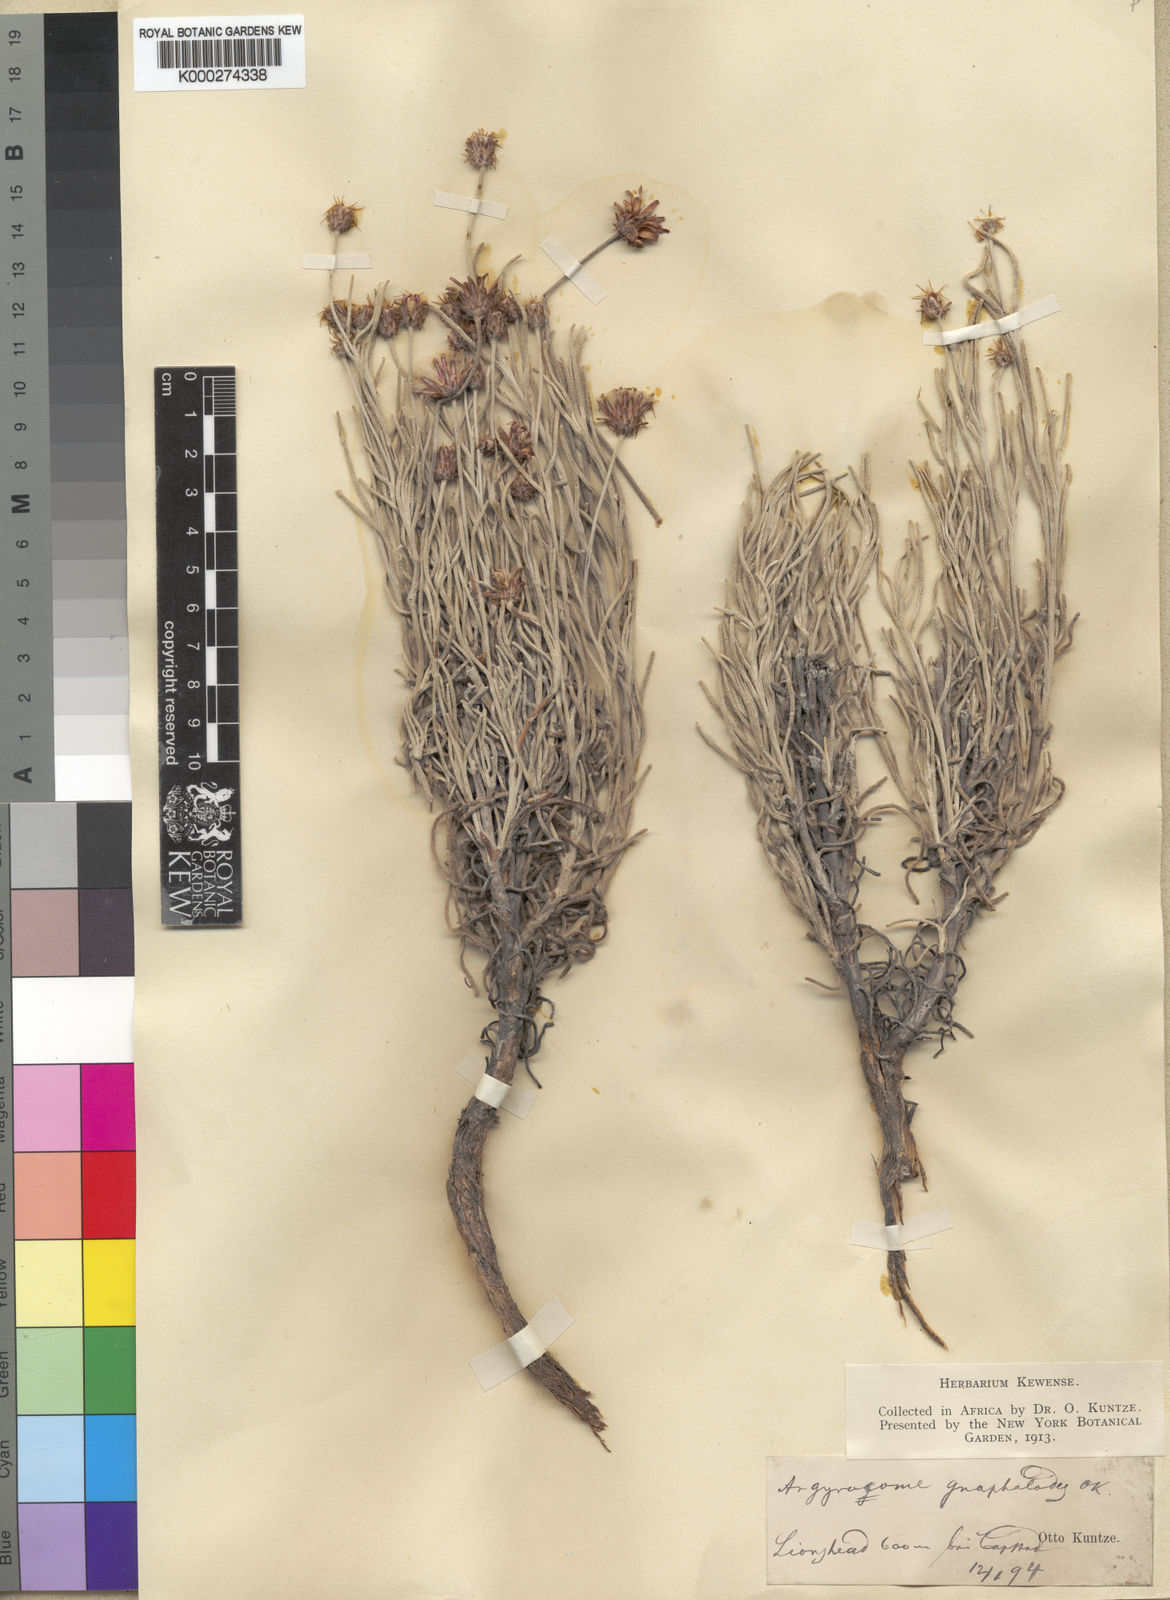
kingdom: Plantae
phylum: Tracheophyta
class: Magnoliopsida
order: Asterales
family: Asteraceae
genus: Syncarpha
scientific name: Syncarpha gnaphaloides
